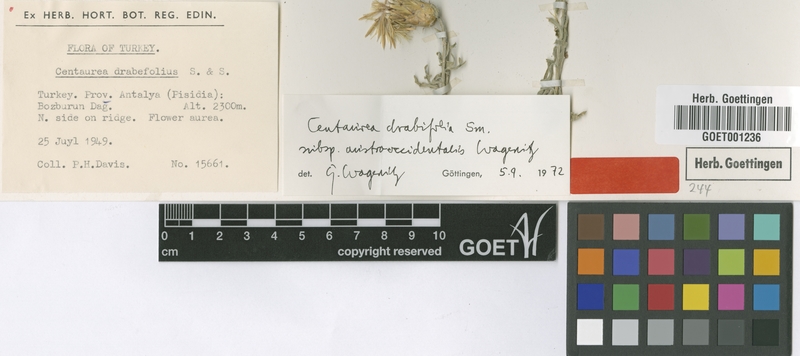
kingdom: Plantae
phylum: Tracheophyta
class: Magnoliopsida
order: Asterales
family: Asteraceae
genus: Centaurea
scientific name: Centaurea drabifolia
